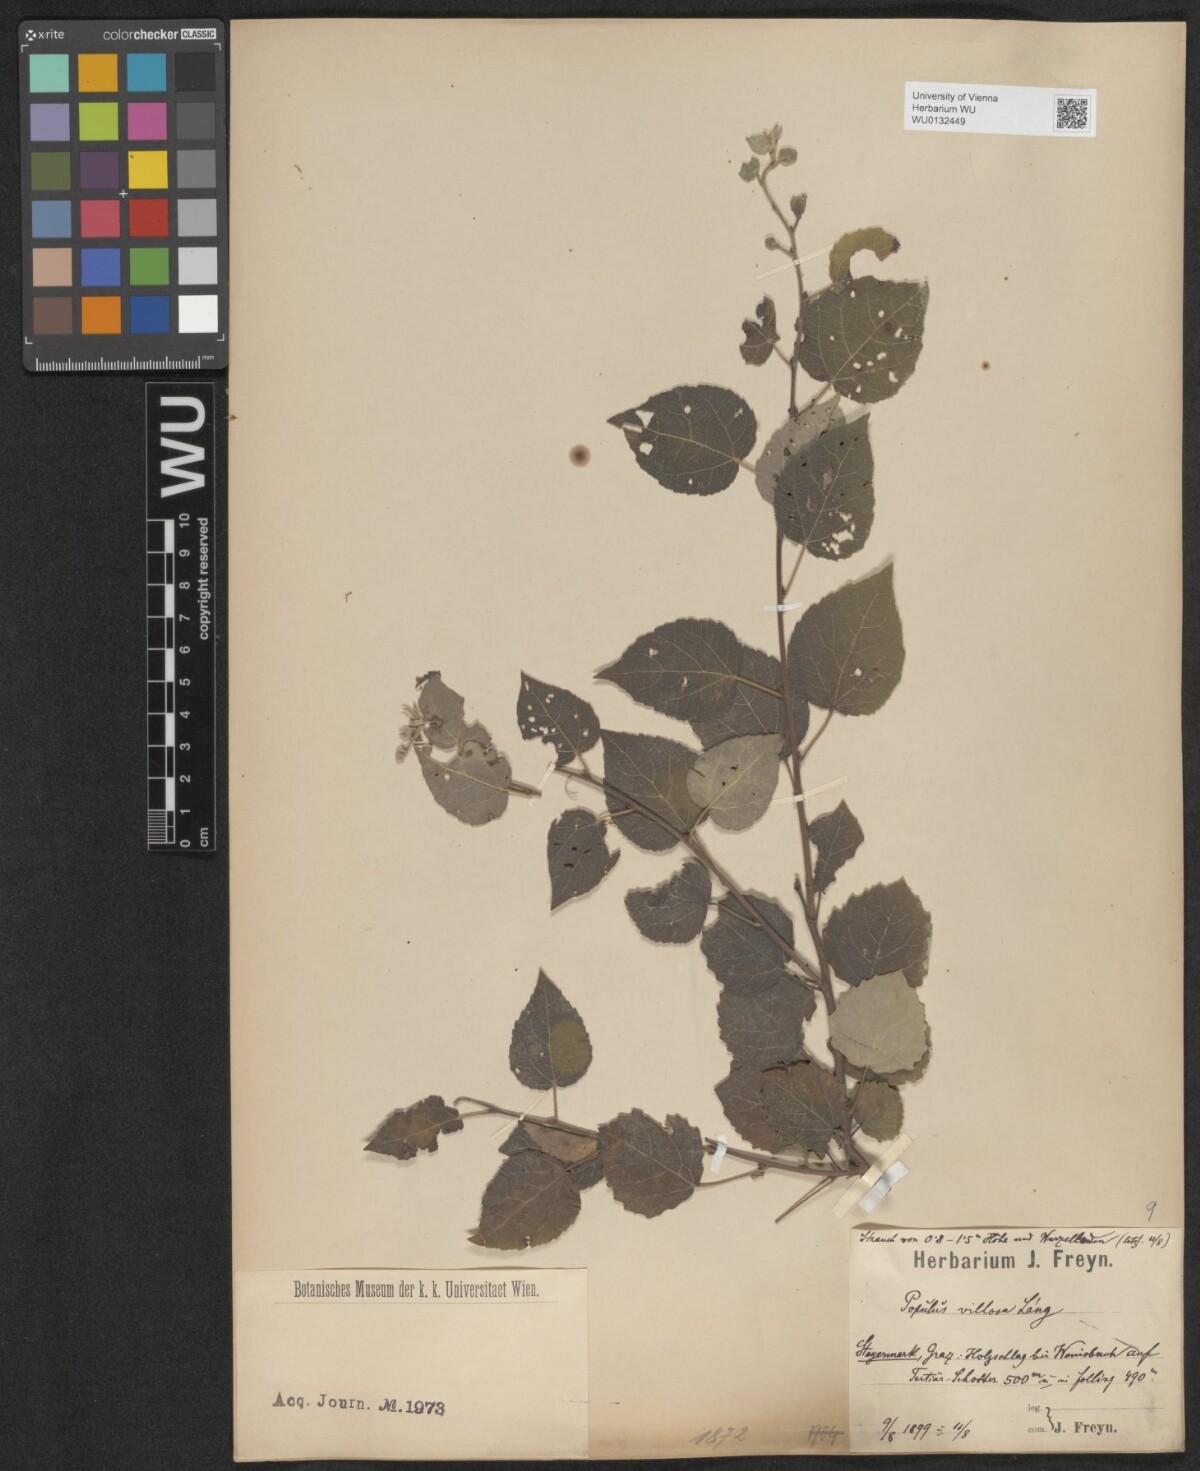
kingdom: Plantae
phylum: Tracheophyta
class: Magnoliopsida
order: Malpighiales
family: Salicaceae
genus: Populus
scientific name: Populus tremula
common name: European aspen
